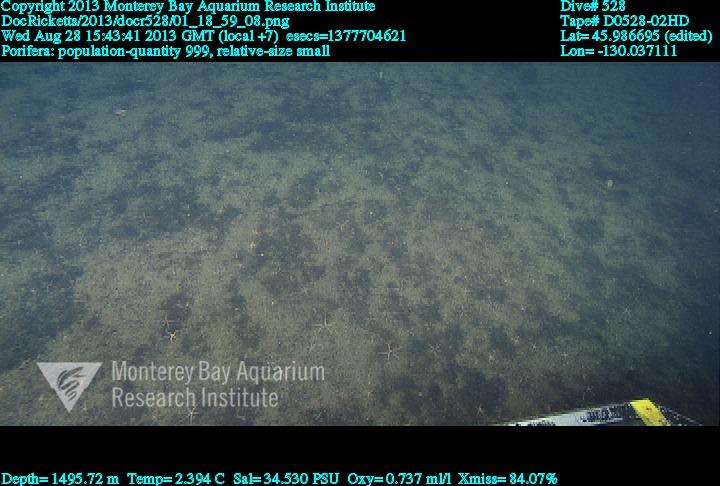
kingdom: Animalia
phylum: Porifera
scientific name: Porifera
